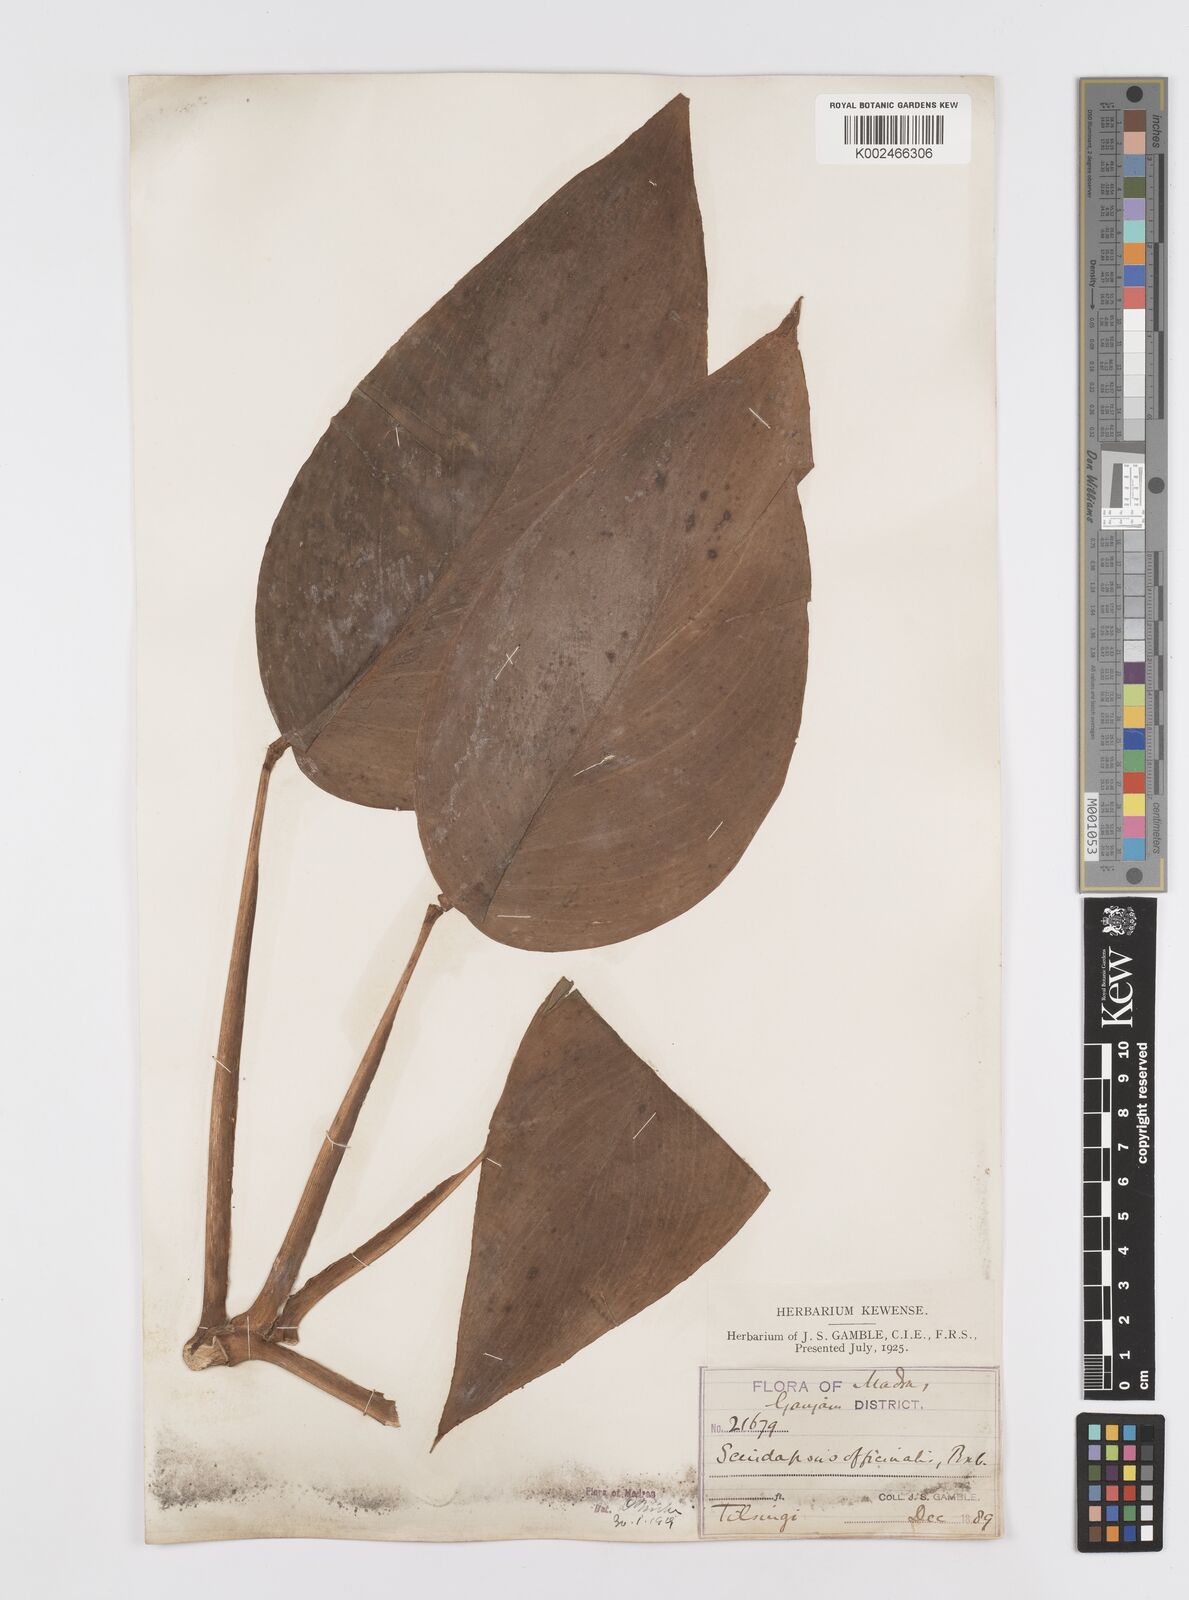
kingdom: Plantae
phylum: Tracheophyta
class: Liliopsida
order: Alismatales
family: Araceae
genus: Scindapsus
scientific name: Scindapsus officinalis
